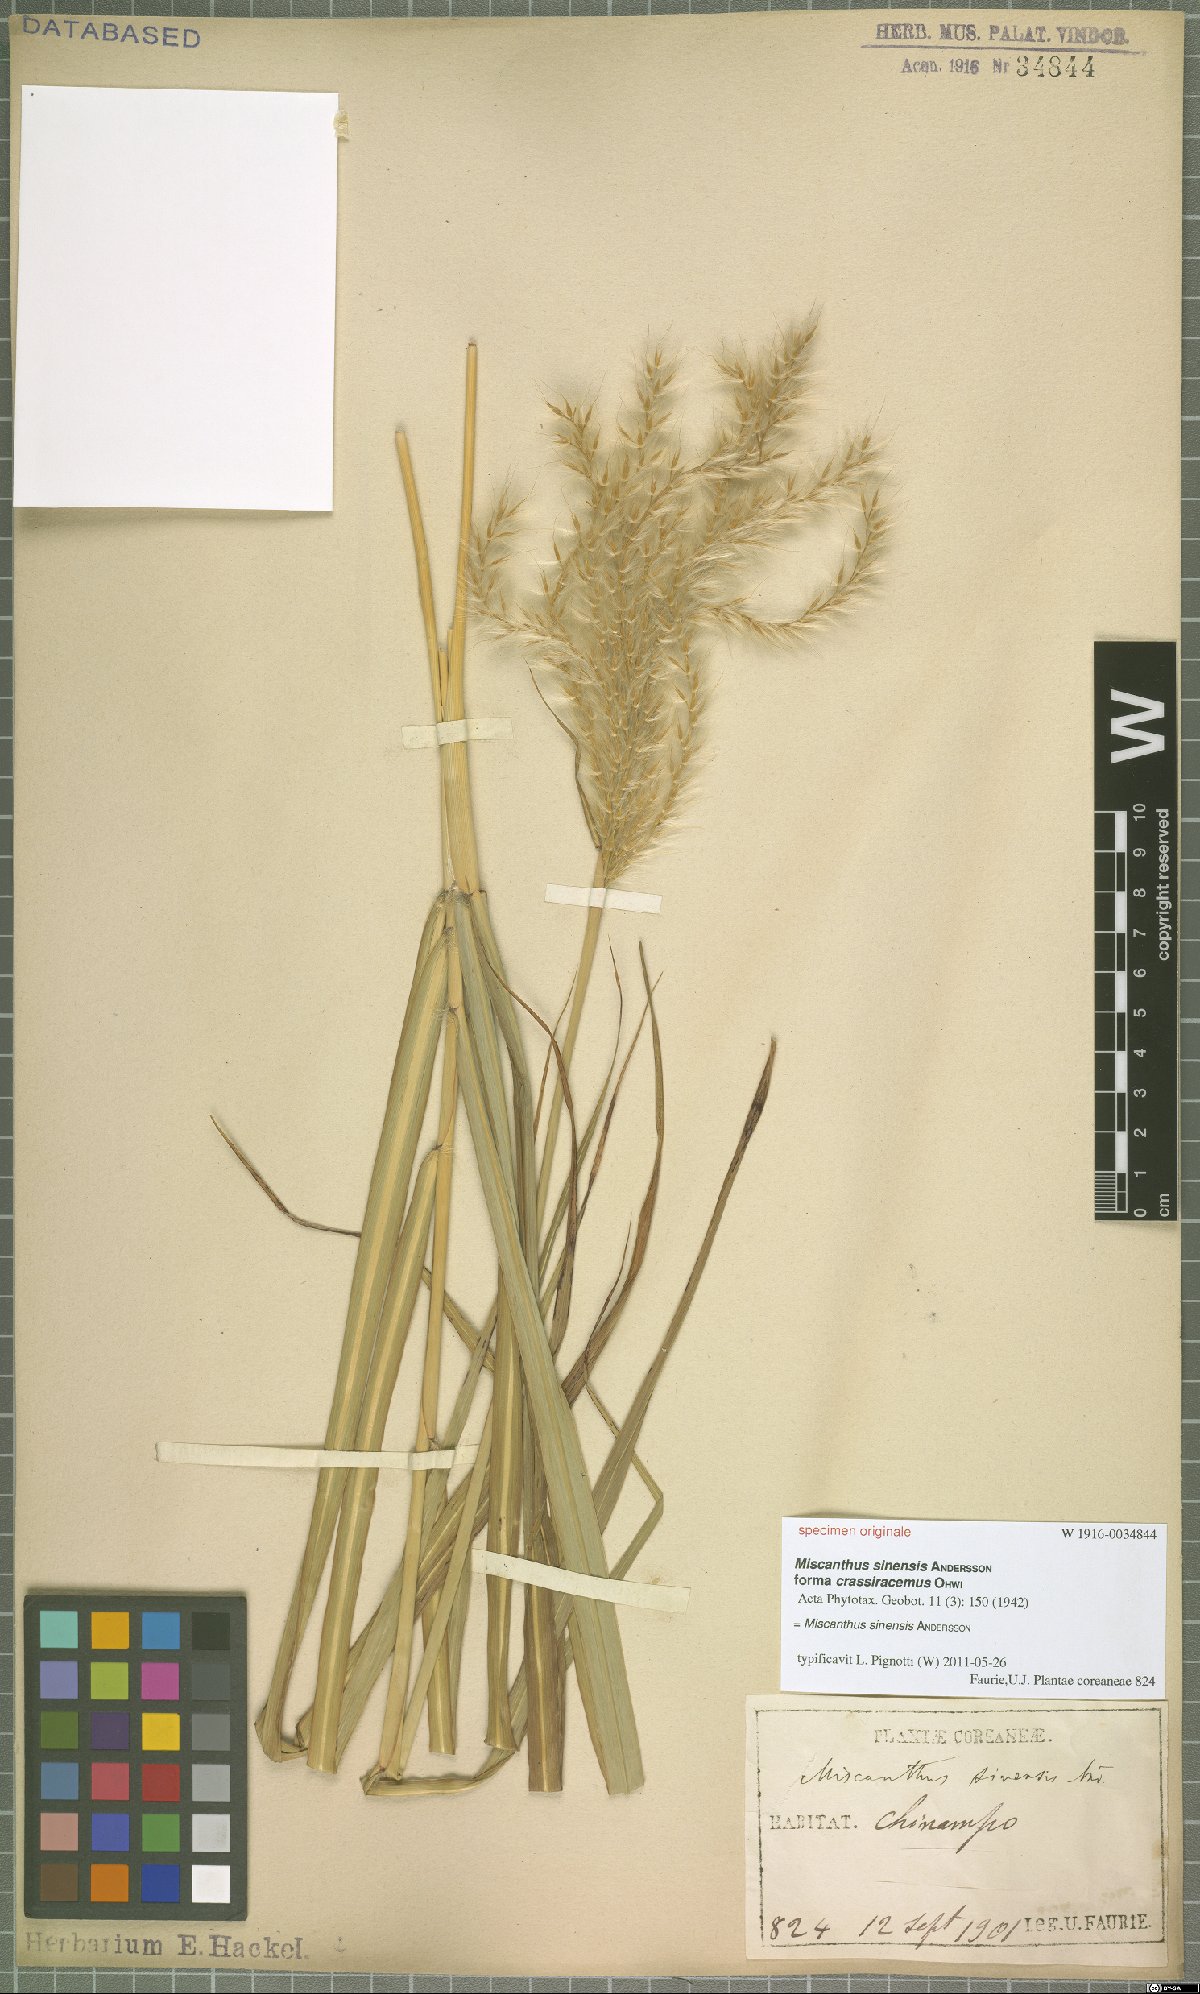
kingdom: Plantae
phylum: Tracheophyta
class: Liliopsida
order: Poales
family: Poaceae
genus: Miscanthus
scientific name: Miscanthus sinensis
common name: Chinese silvergrass
